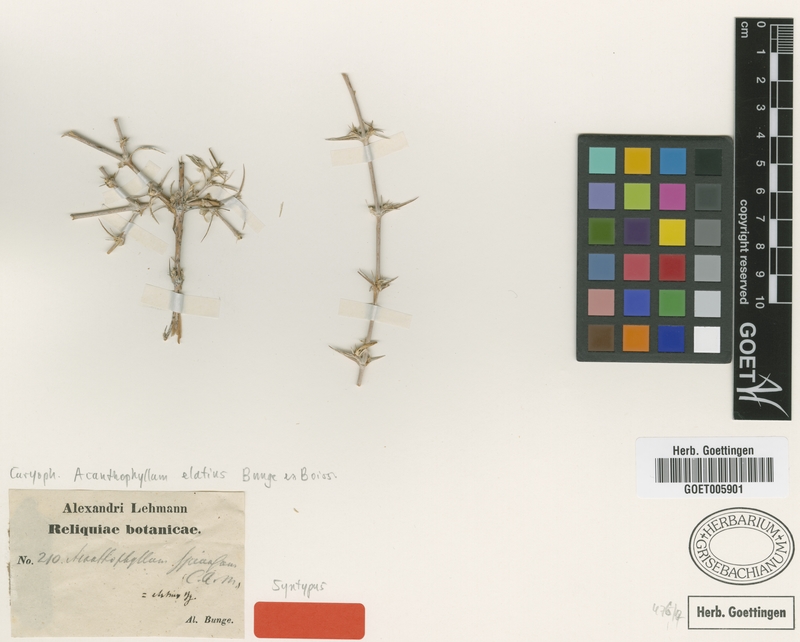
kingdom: Plantae
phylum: Tracheophyta
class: Magnoliopsida
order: Caryophyllales
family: Caryophyllaceae
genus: Acanthophyllum
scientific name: Acanthophyllum elatius
